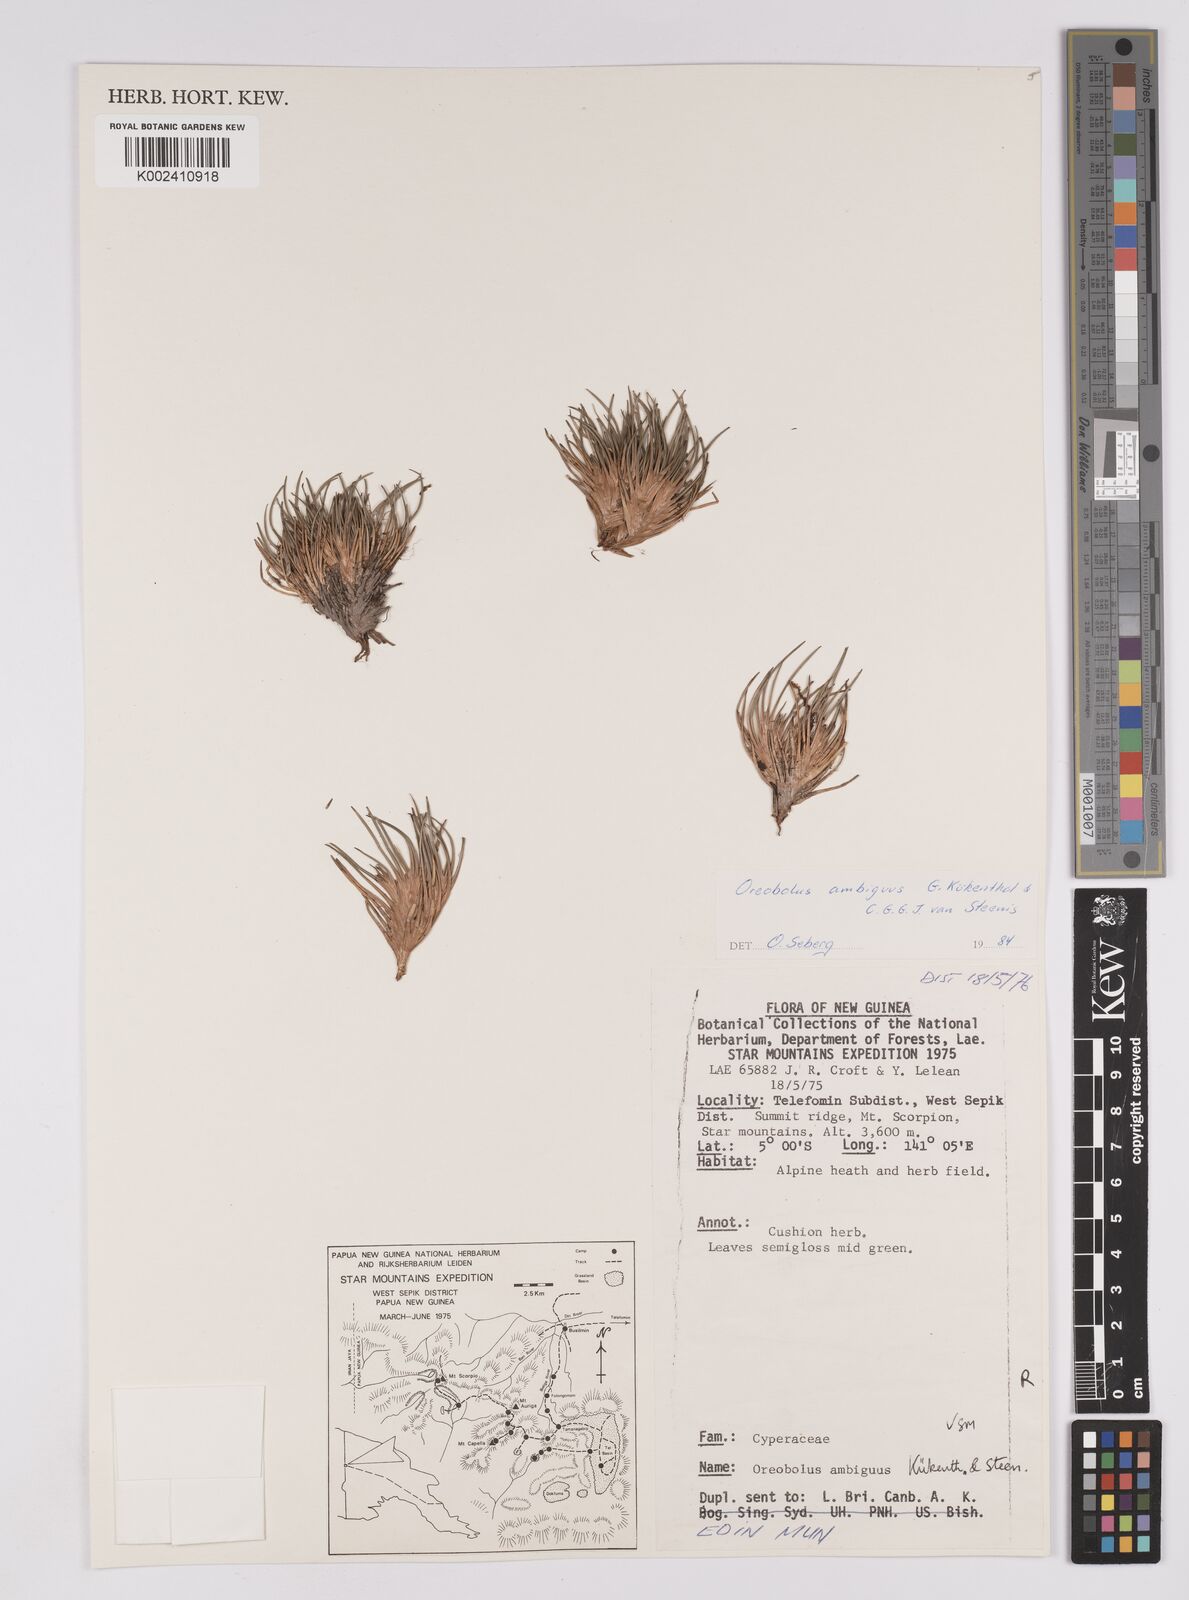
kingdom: Plantae
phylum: Tracheophyta
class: Liliopsida
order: Poales
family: Cyperaceae
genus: Oreobolus
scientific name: Oreobolus ambiguus
